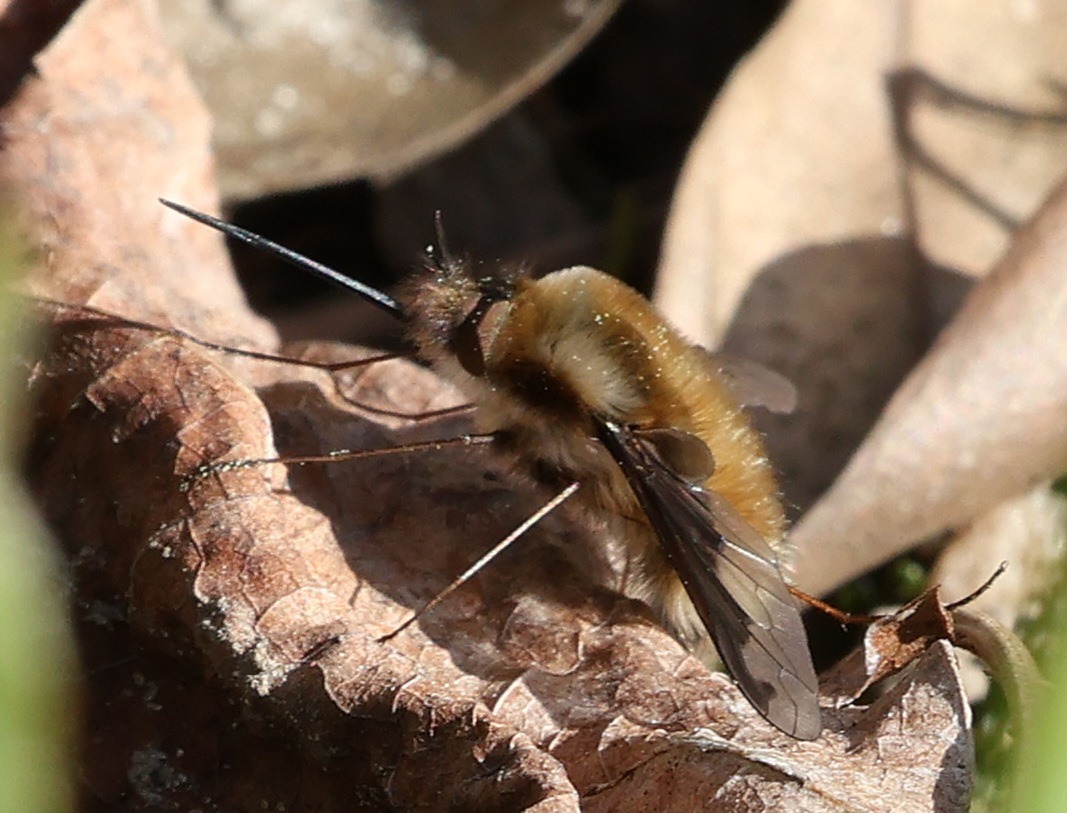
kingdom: Animalia
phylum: Arthropoda
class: Insecta
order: Diptera
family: Bombyliidae
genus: Bombylius
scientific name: Bombylius major
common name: Stor humleflue
